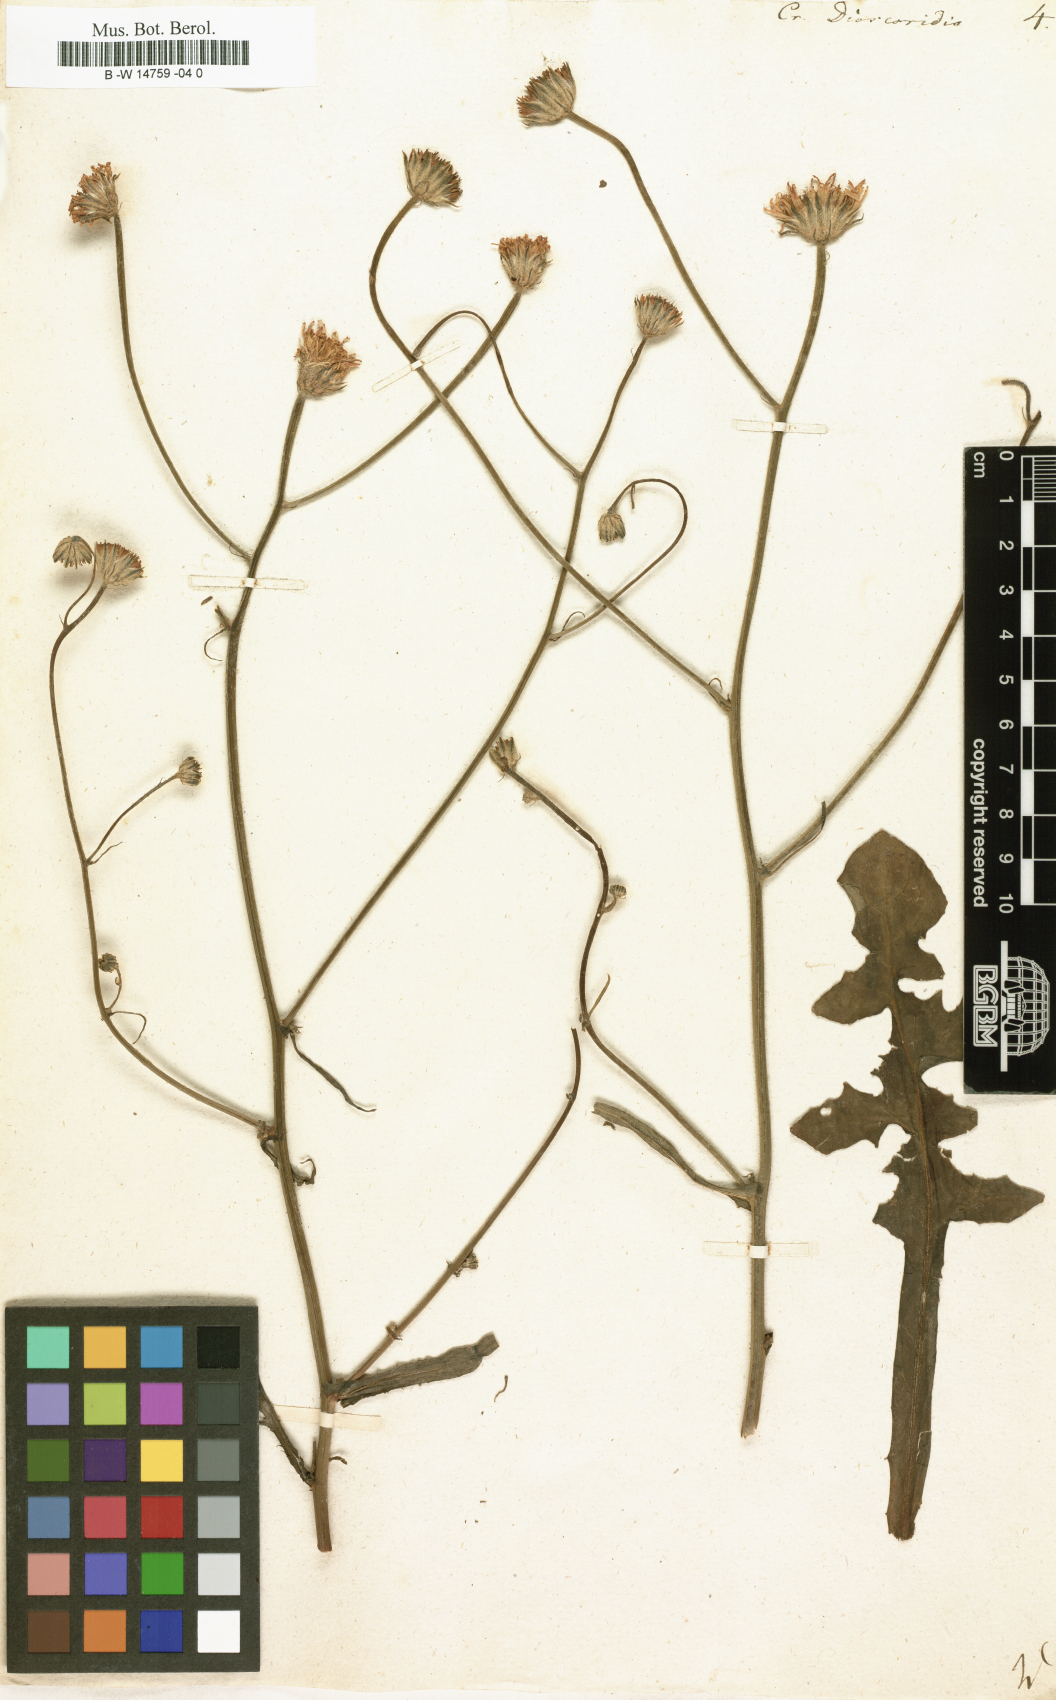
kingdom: Plantae
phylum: Tracheophyta
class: Magnoliopsida
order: Asterales
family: Asteraceae
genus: Crepis
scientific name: Crepis dioscoridis
